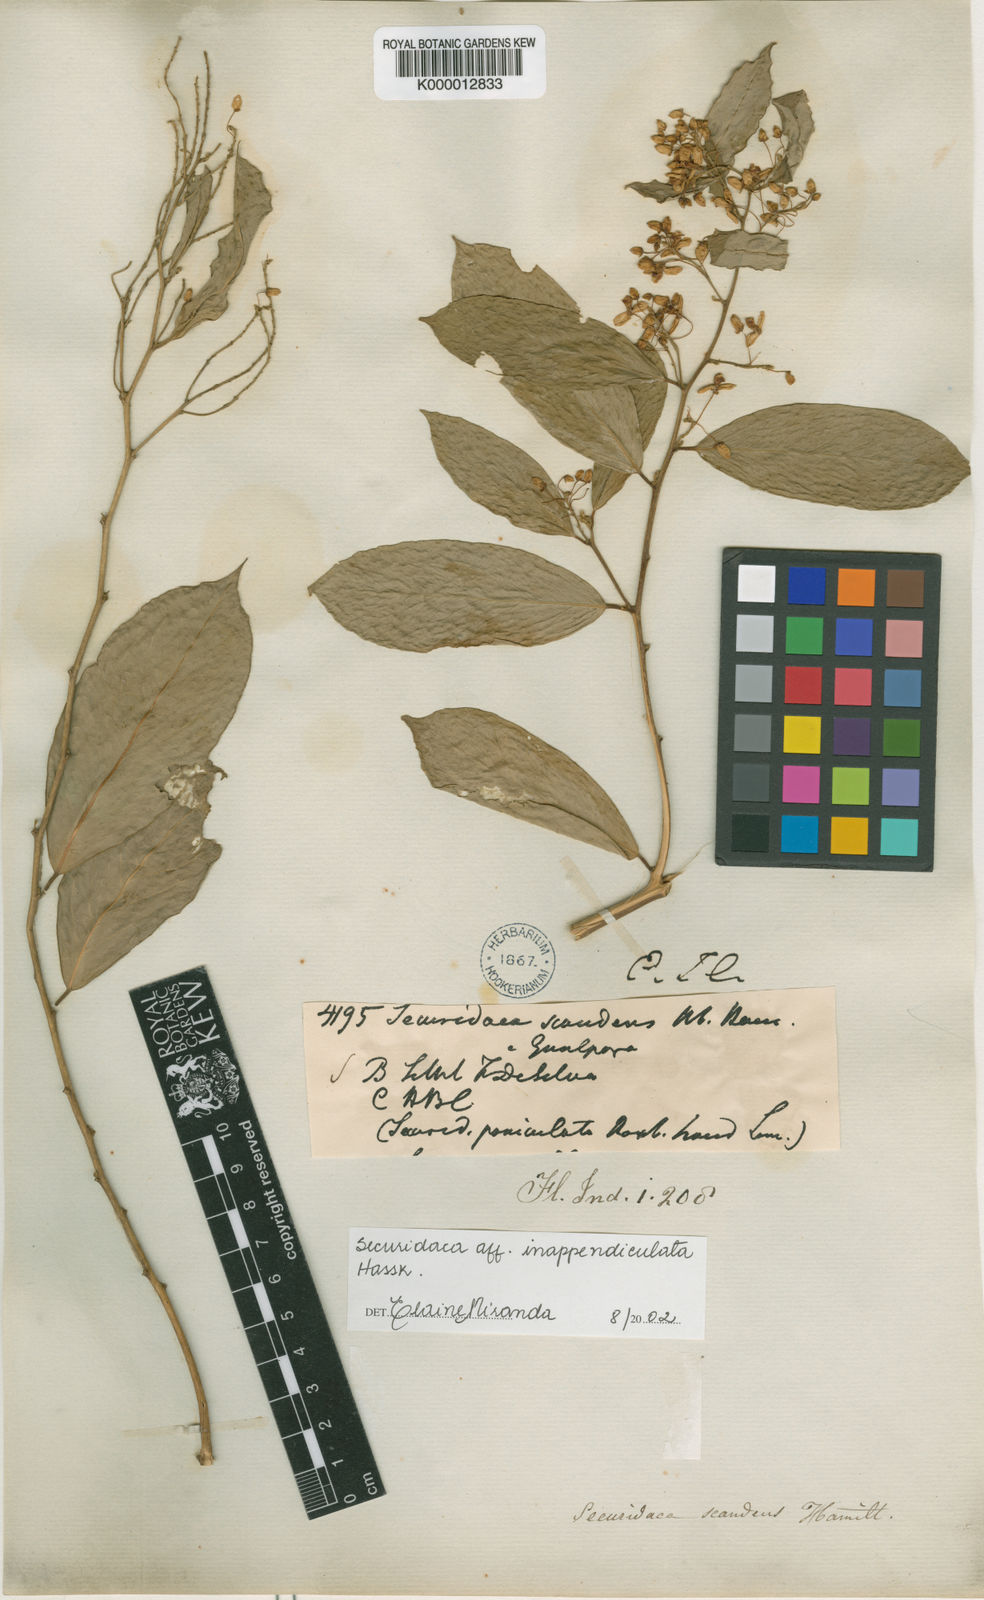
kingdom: Plantae
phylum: Tracheophyta
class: Magnoliopsida
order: Fabales
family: Polygalaceae
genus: Securidaca
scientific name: Securidaca inappendiculata
